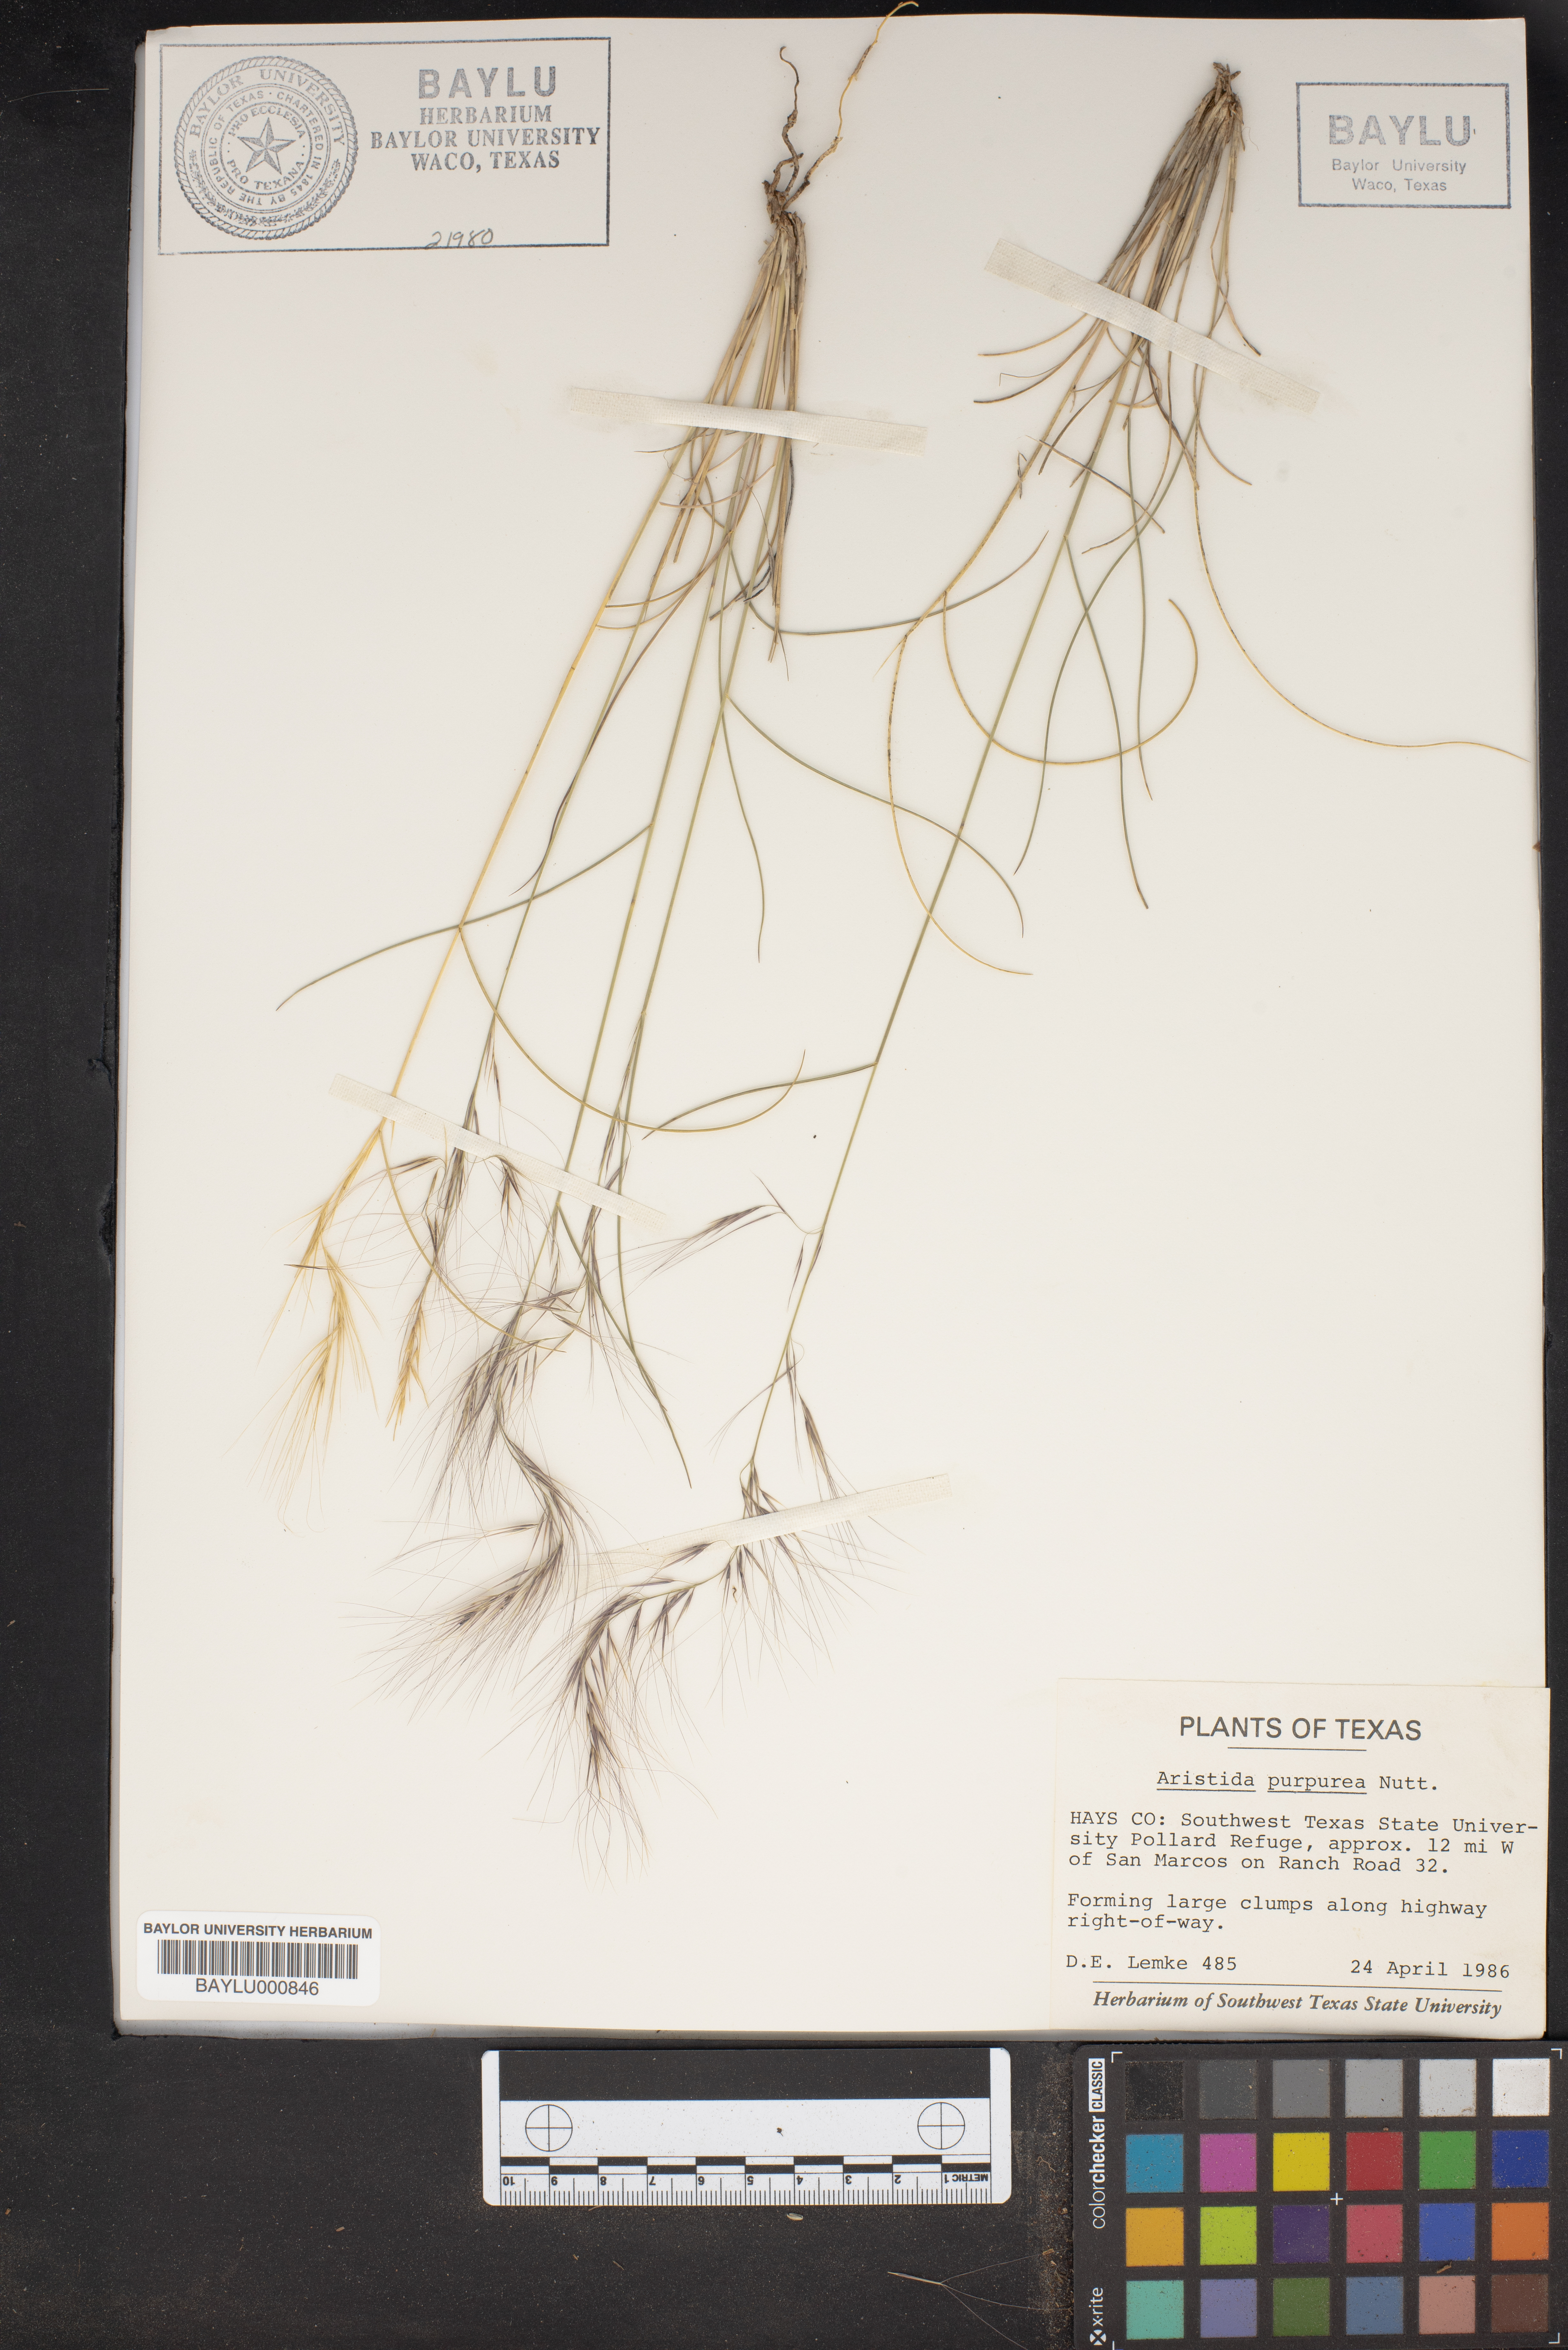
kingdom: Plantae
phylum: Tracheophyta
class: Liliopsida
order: Poales
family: Poaceae
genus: Aristida
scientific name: Aristida purpurea
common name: Purple threeawn
